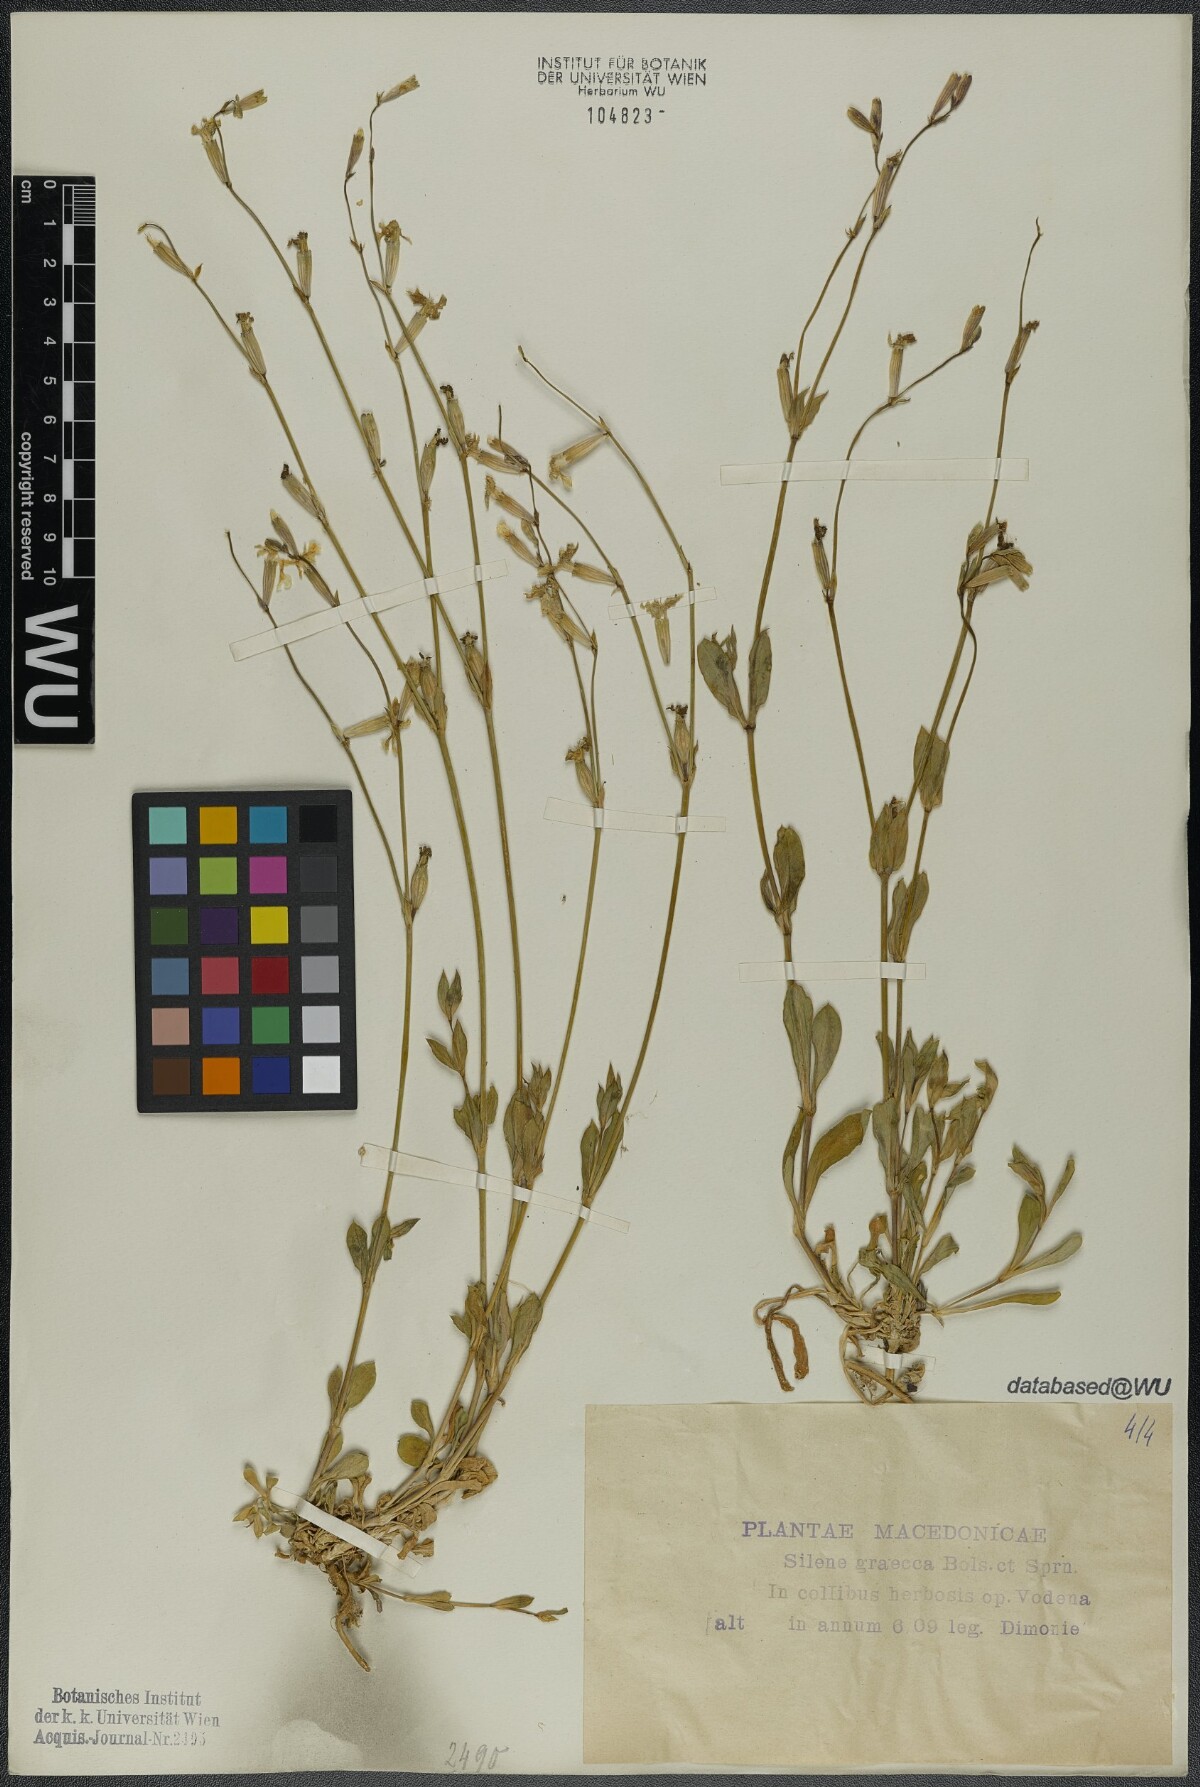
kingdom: Plantae
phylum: Tracheophyta
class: Magnoliopsida
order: Caryophyllales
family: Caryophyllaceae
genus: Silene
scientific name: Silene graeca
